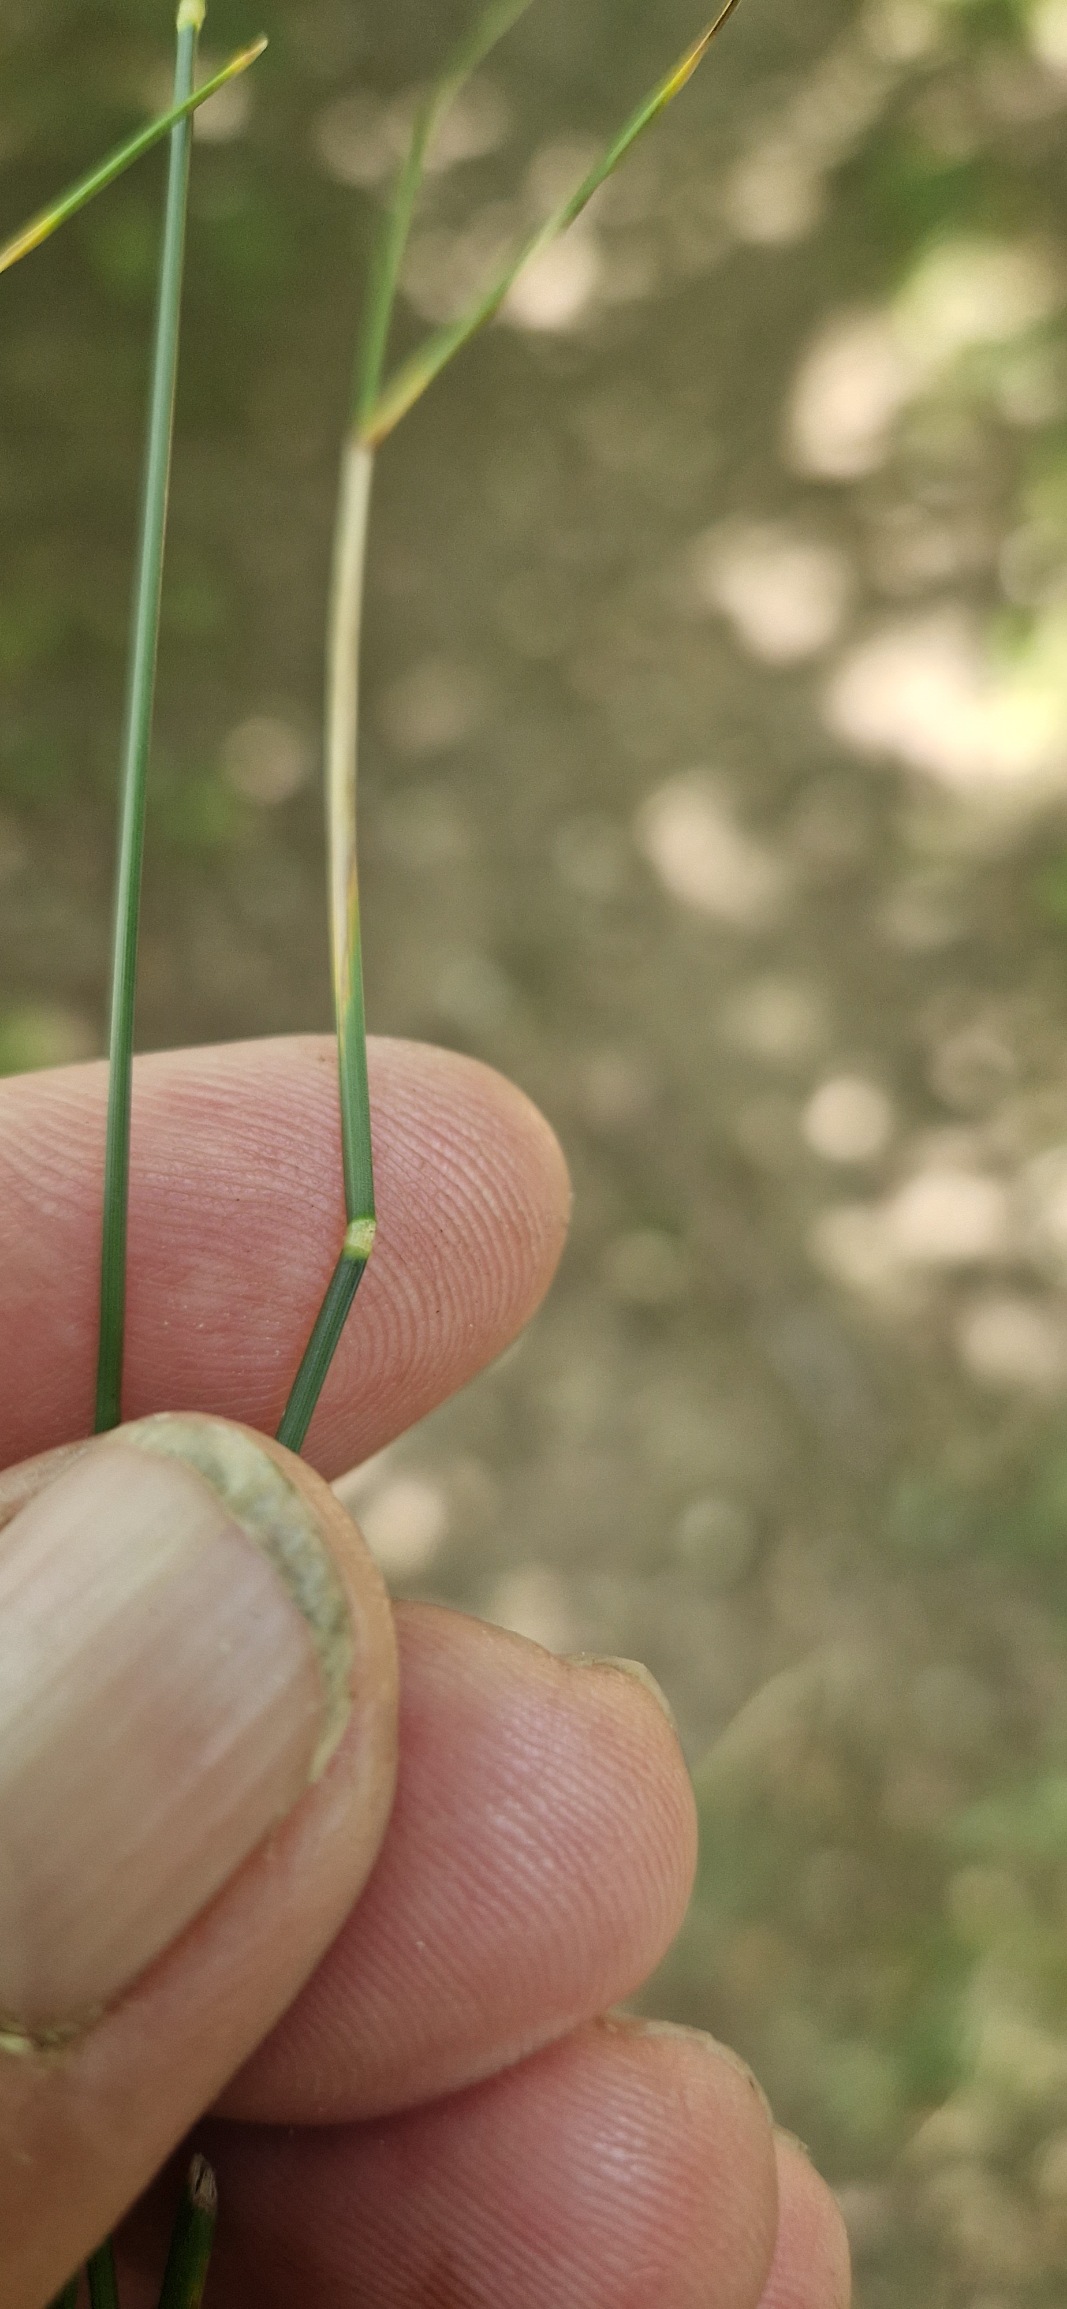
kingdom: Plantae
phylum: Tracheophyta
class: Liliopsida
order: Poales
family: Poaceae
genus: Poa
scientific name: Poa compressa
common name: Fladstrået rapgræs
